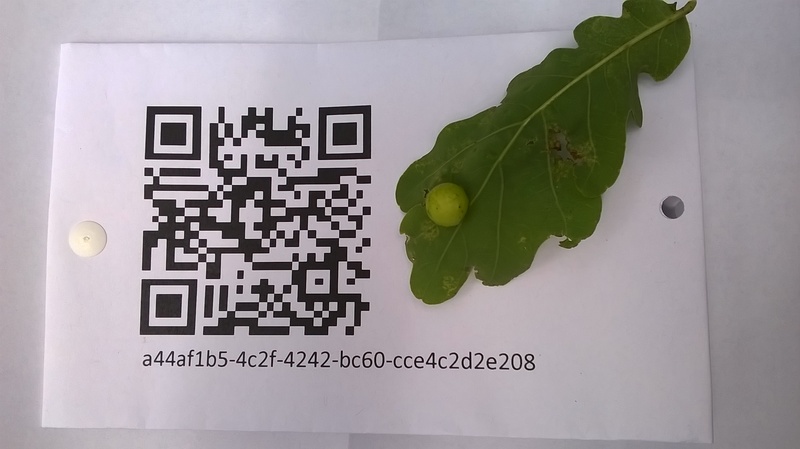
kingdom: Animalia
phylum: Arthropoda
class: Insecta
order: Hymenoptera
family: Cynipidae
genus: Cynips
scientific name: Cynips quercusfolii
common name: Cherry gall
